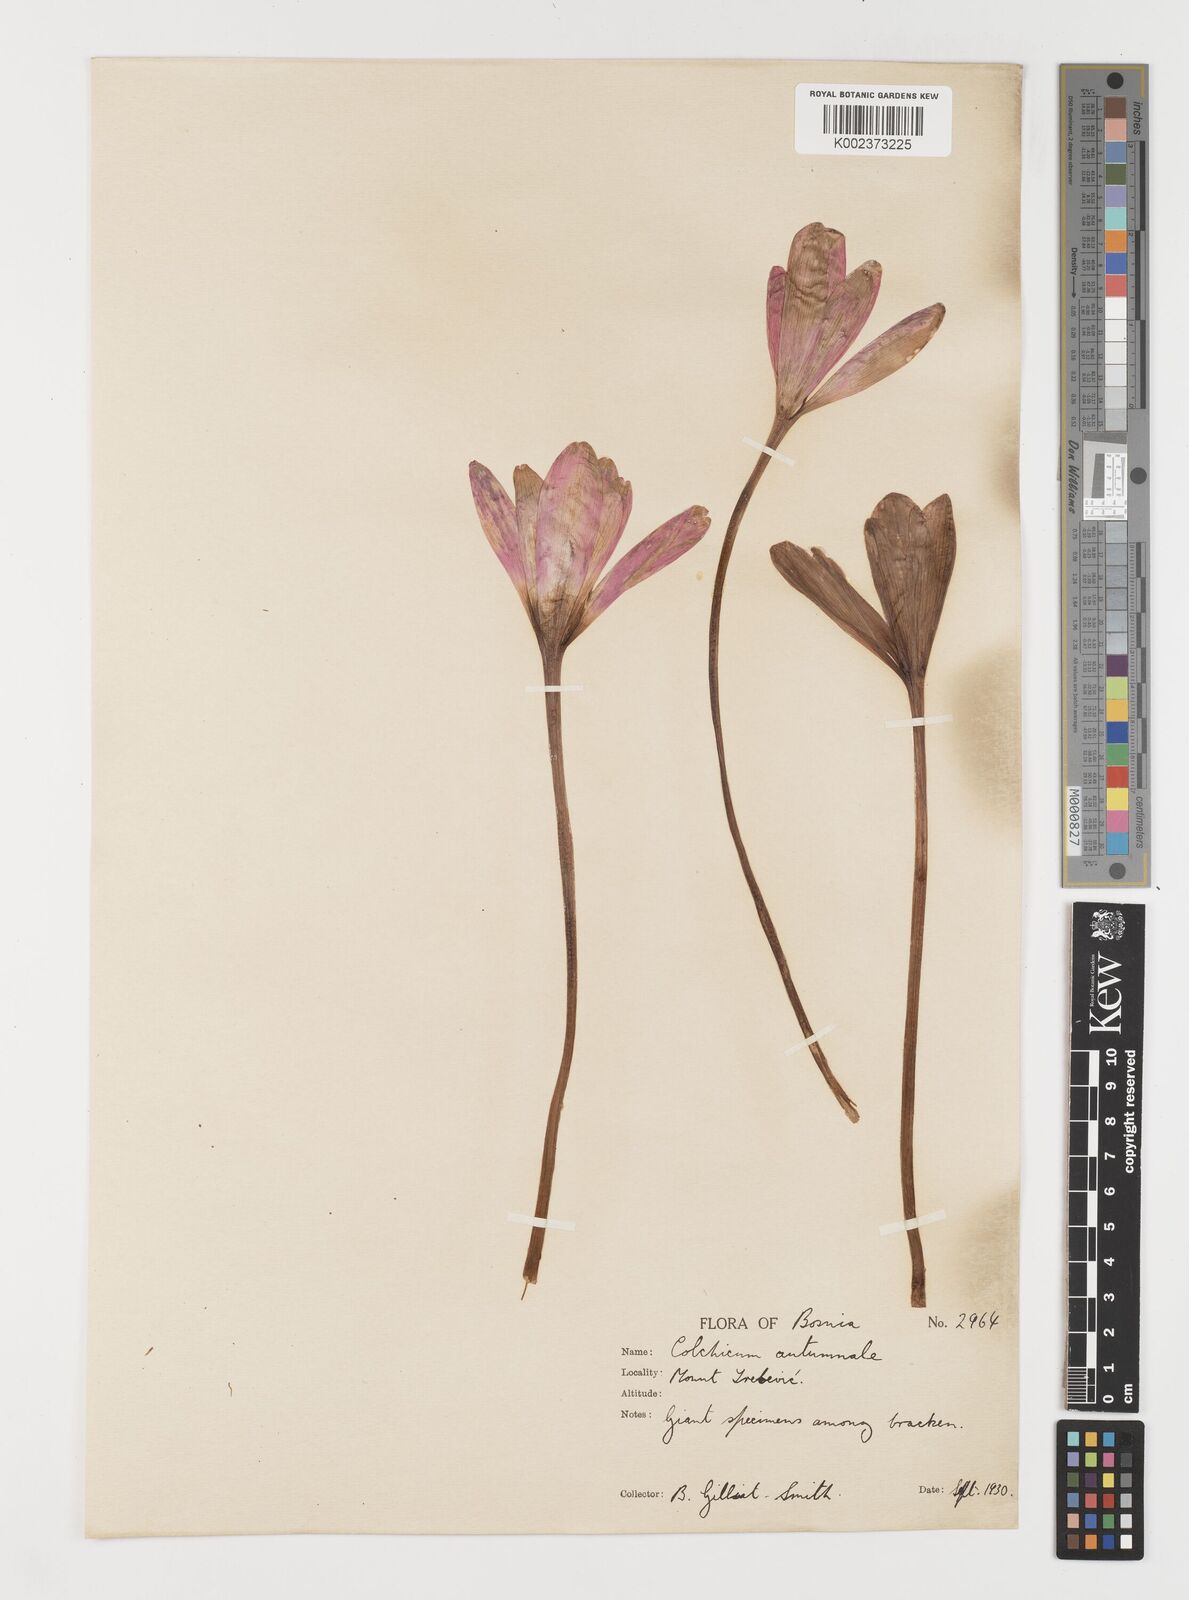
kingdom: Plantae
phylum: Tracheophyta
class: Liliopsida
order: Liliales
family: Colchicaceae
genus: Colchicum
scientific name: Colchicum autumnale
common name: Autumn crocus
